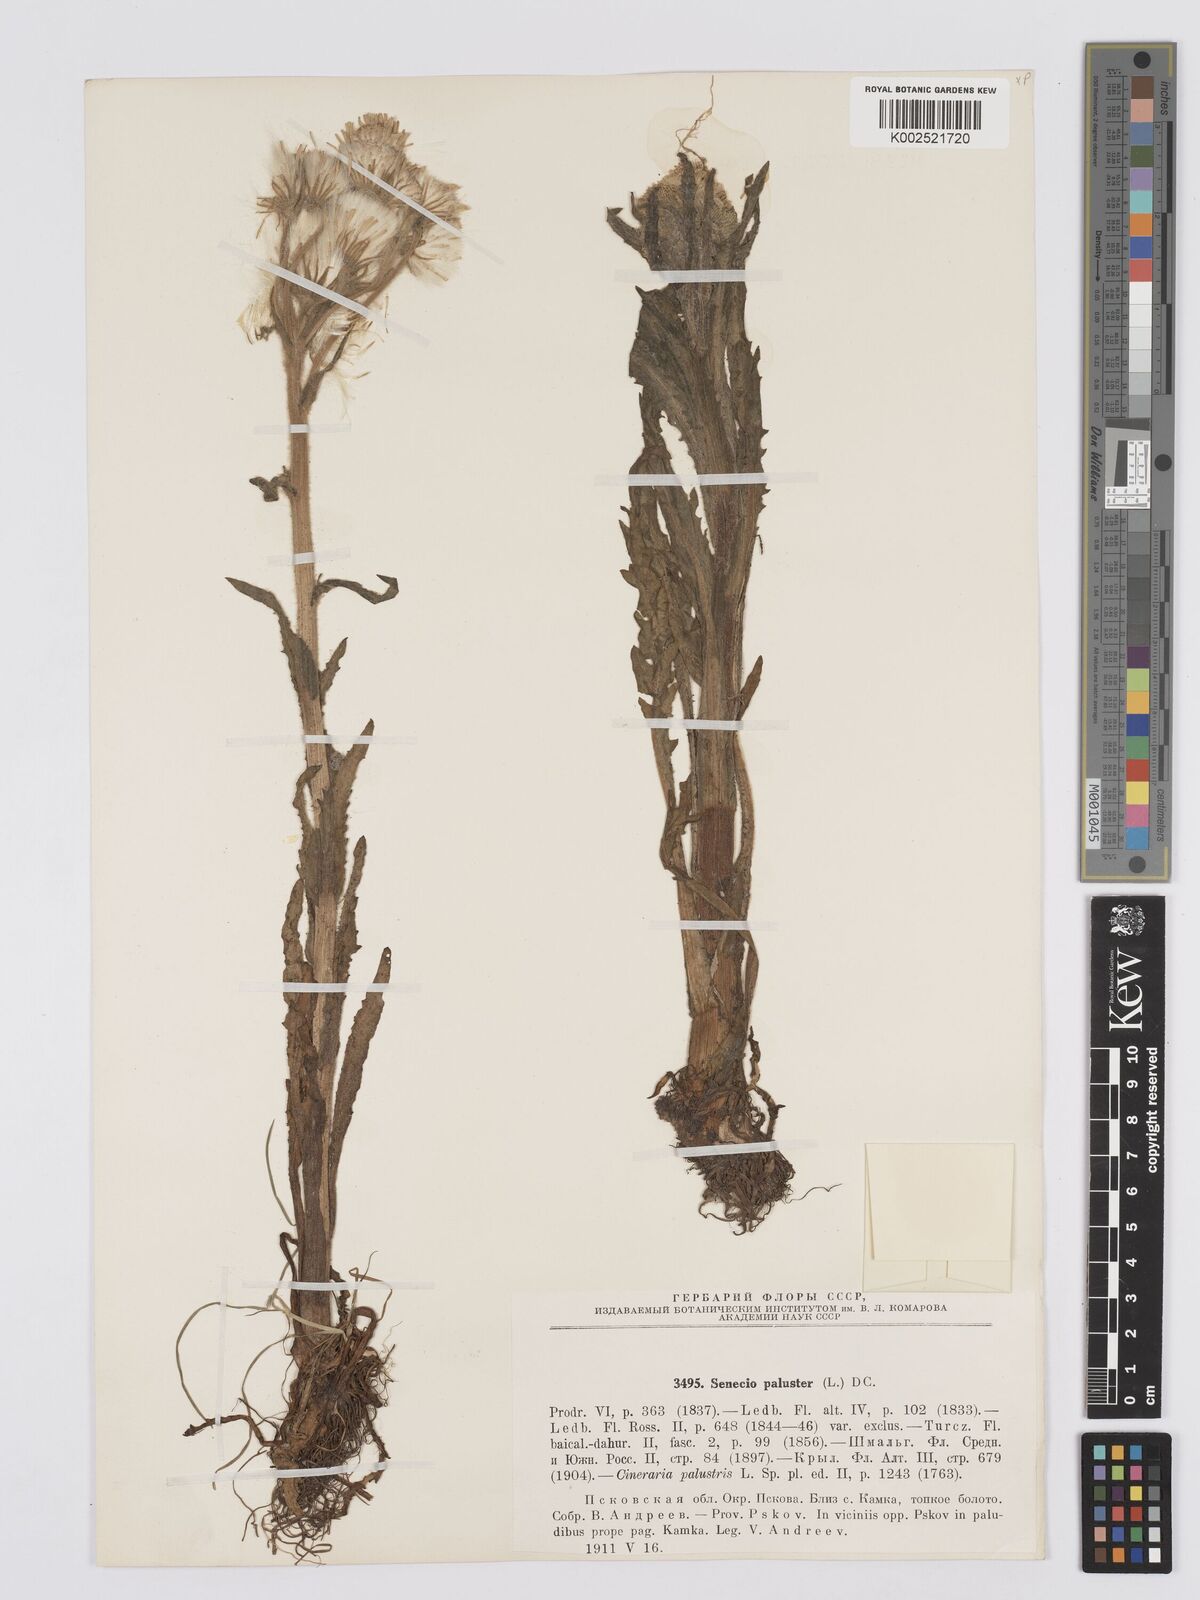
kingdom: Plantae
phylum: Tracheophyta
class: Magnoliopsida
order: Asterales
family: Asteraceae
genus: Tephroseris
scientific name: Tephroseris palustris
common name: Marsh fleawort
